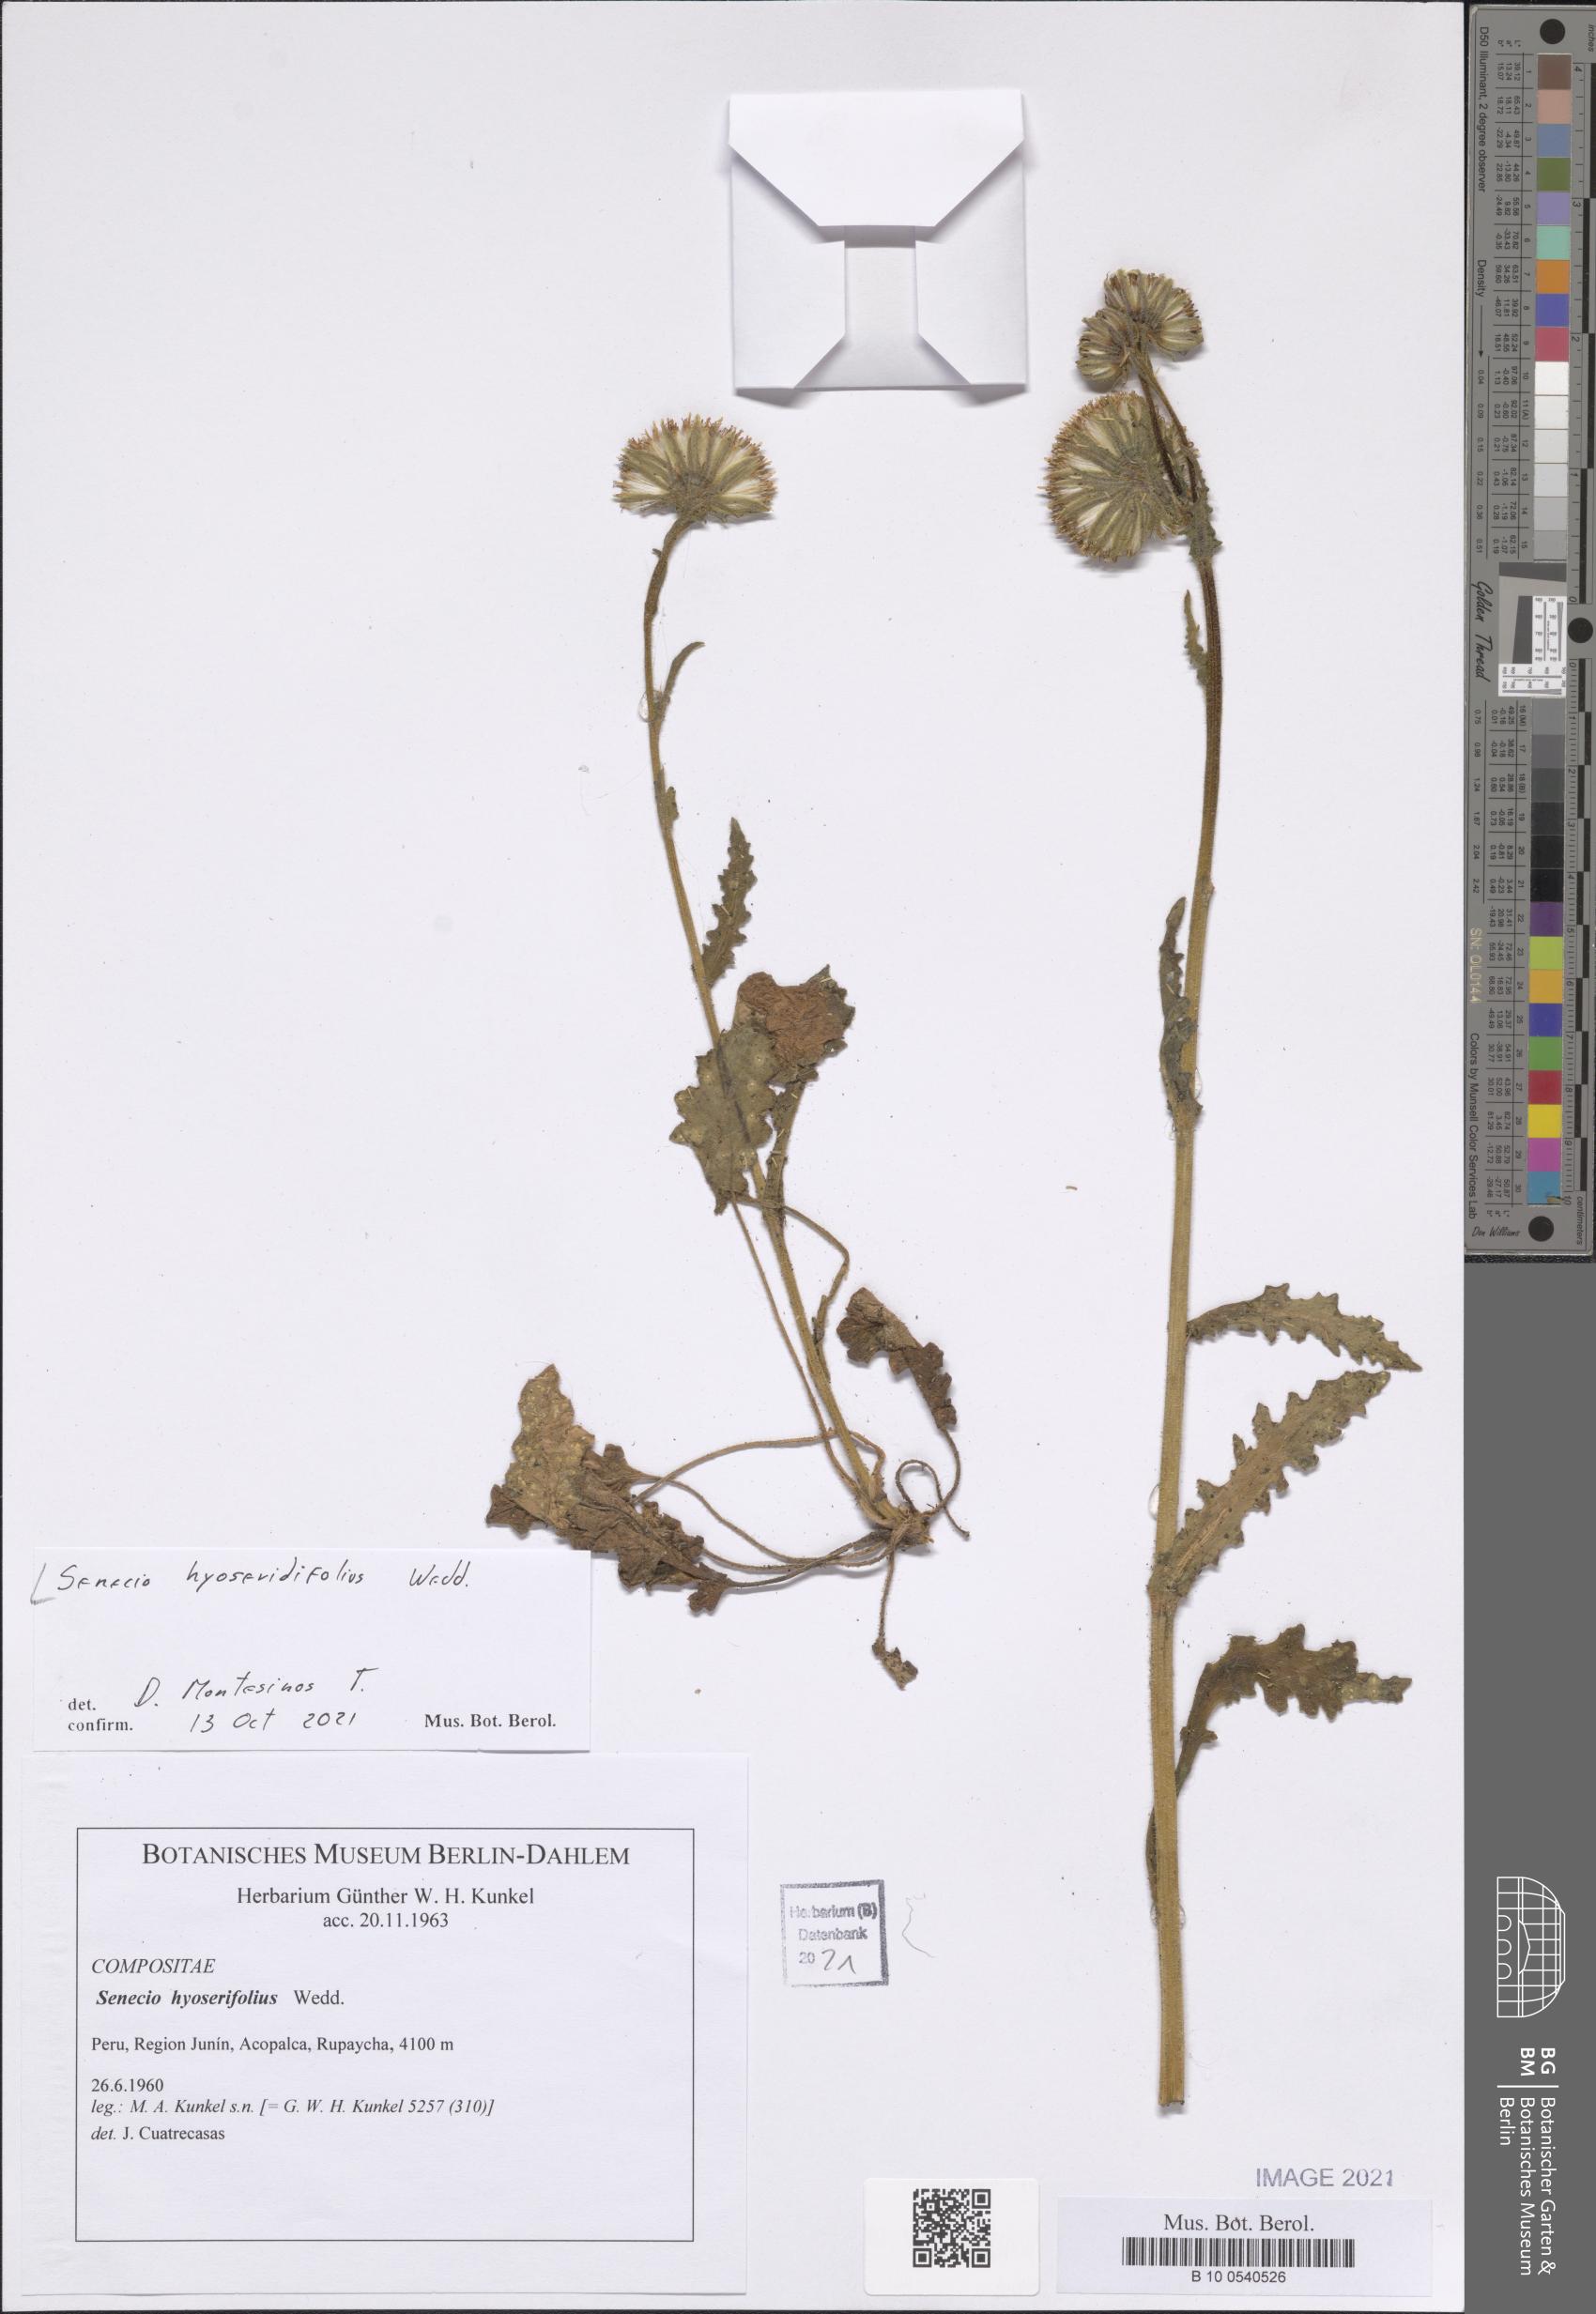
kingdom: Plantae
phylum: Tracheophyta
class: Magnoliopsida
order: Asterales
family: Asteraceae
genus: Senecio
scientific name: Senecio hyoseridifolius
